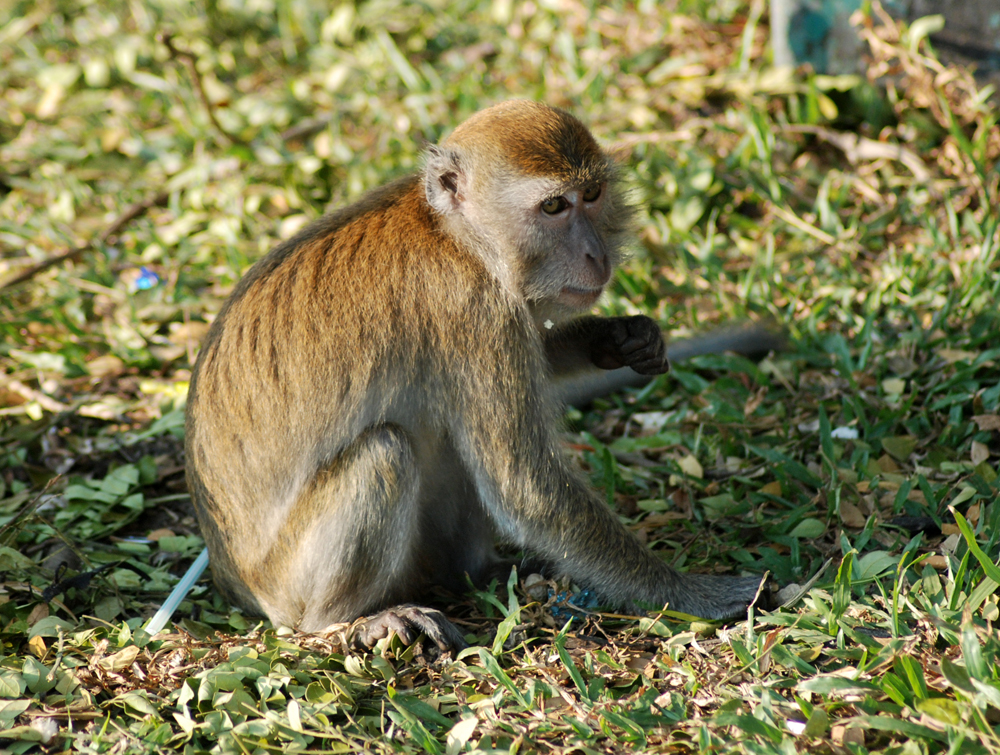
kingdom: Animalia
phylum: Chordata
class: Mammalia
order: Primates
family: Cercopithecidae
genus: Macaca
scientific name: Macaca fascicularis
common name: Crab-eating macaque
